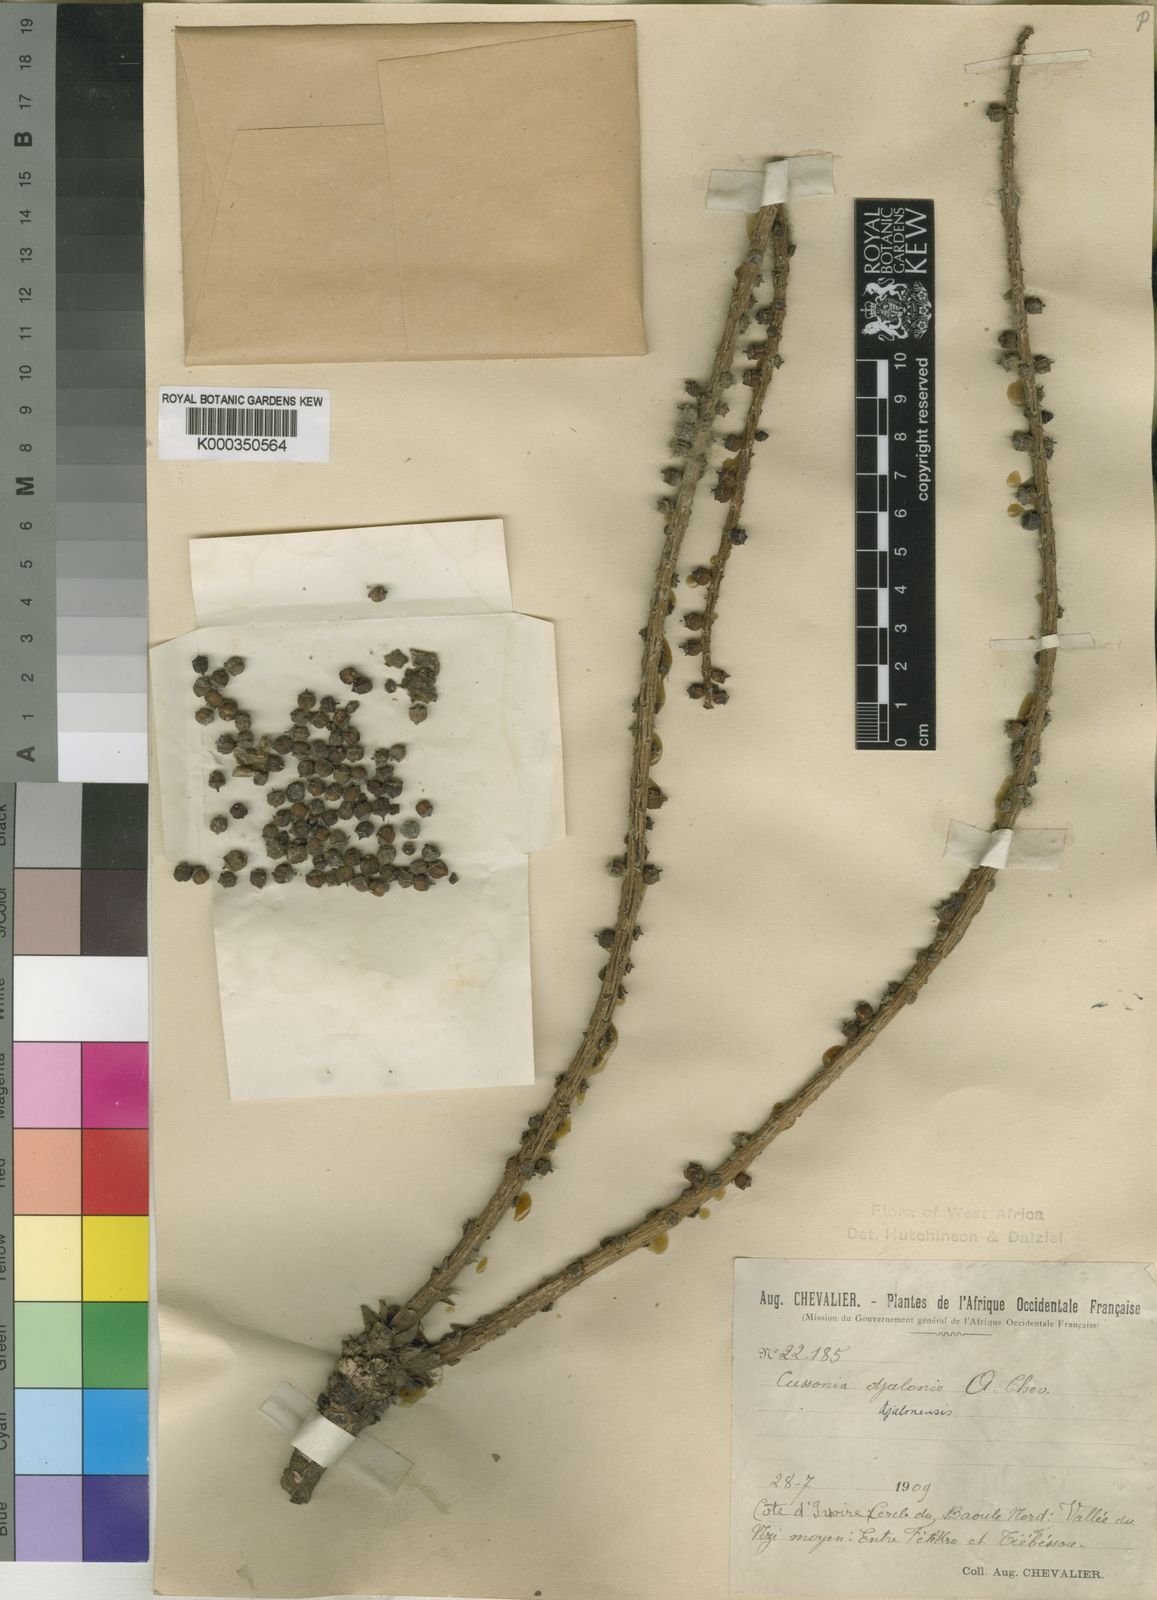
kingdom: Plantae
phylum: Tracheophyta
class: Magnoliopsida
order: Apiales
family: Araliaceae
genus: Cussonia
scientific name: Cussonia arborea
